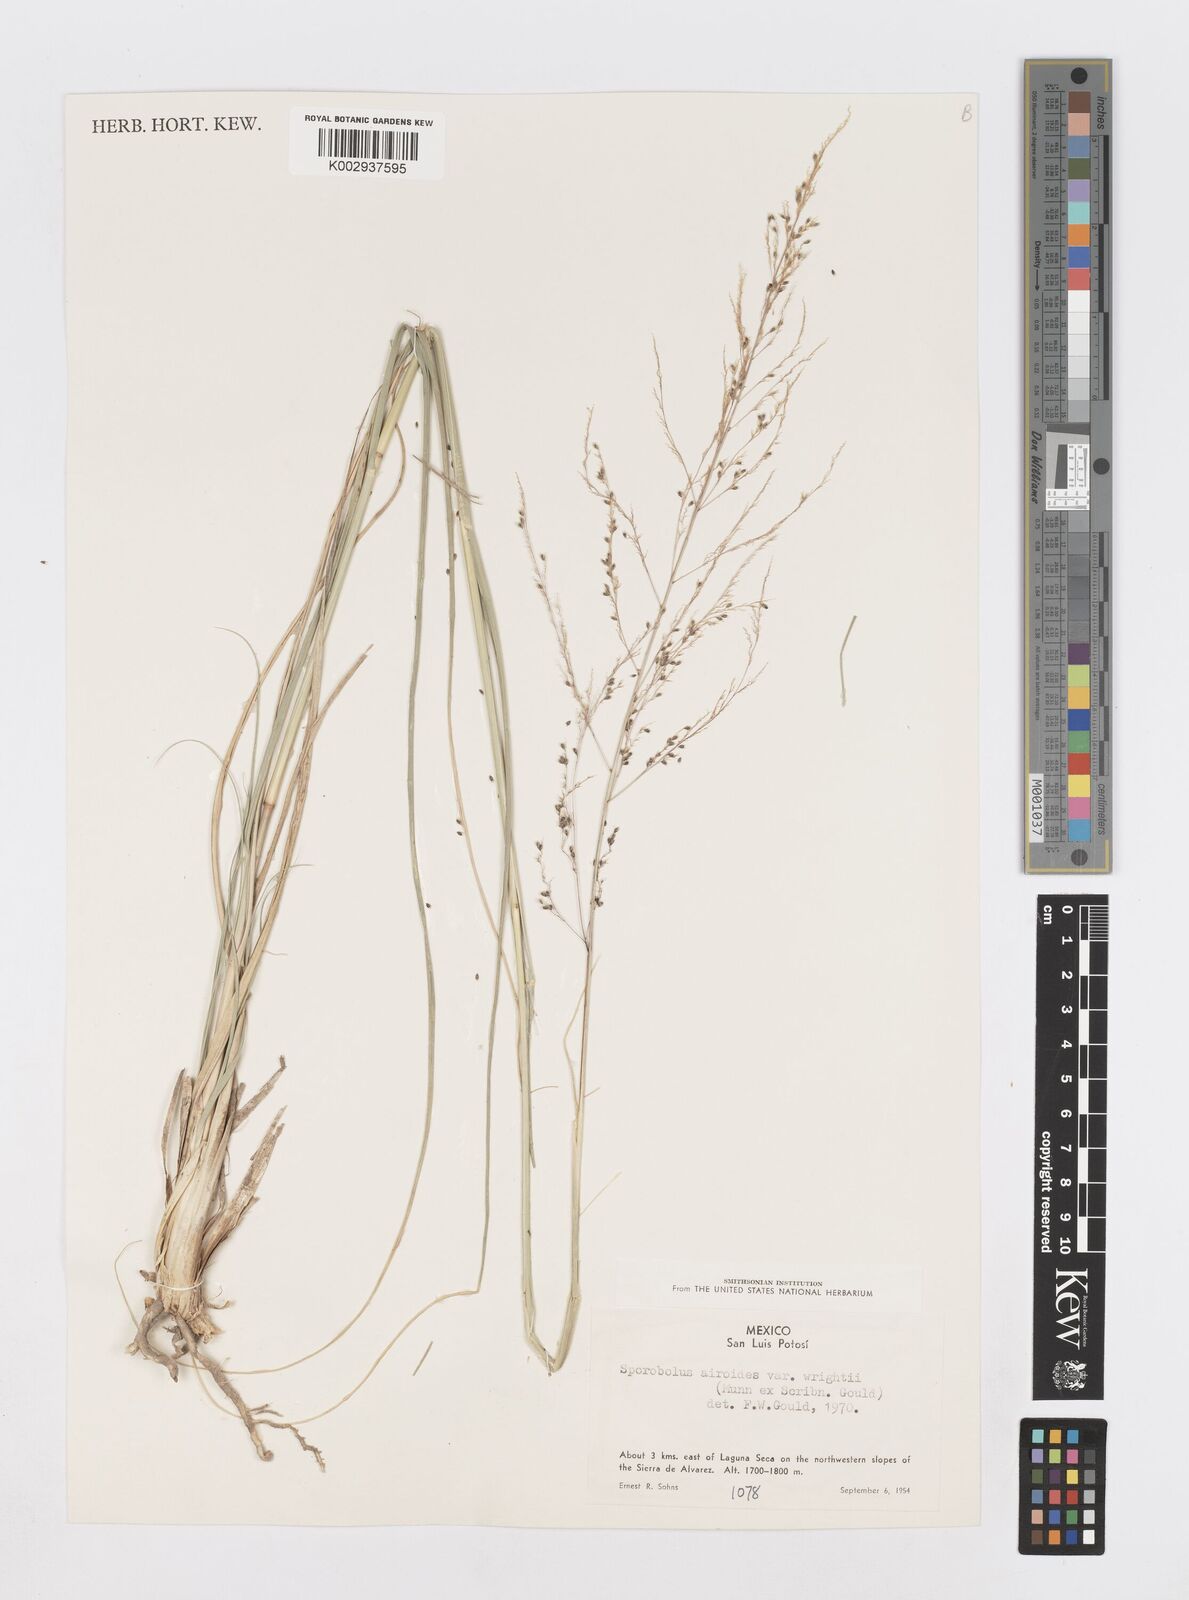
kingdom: Plantae
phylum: Tracheophyta
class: Liliopsida
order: Poales
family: Poaceae
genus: Sporobolus
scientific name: Sporobolus wrightii
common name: Big alkali sacaton
